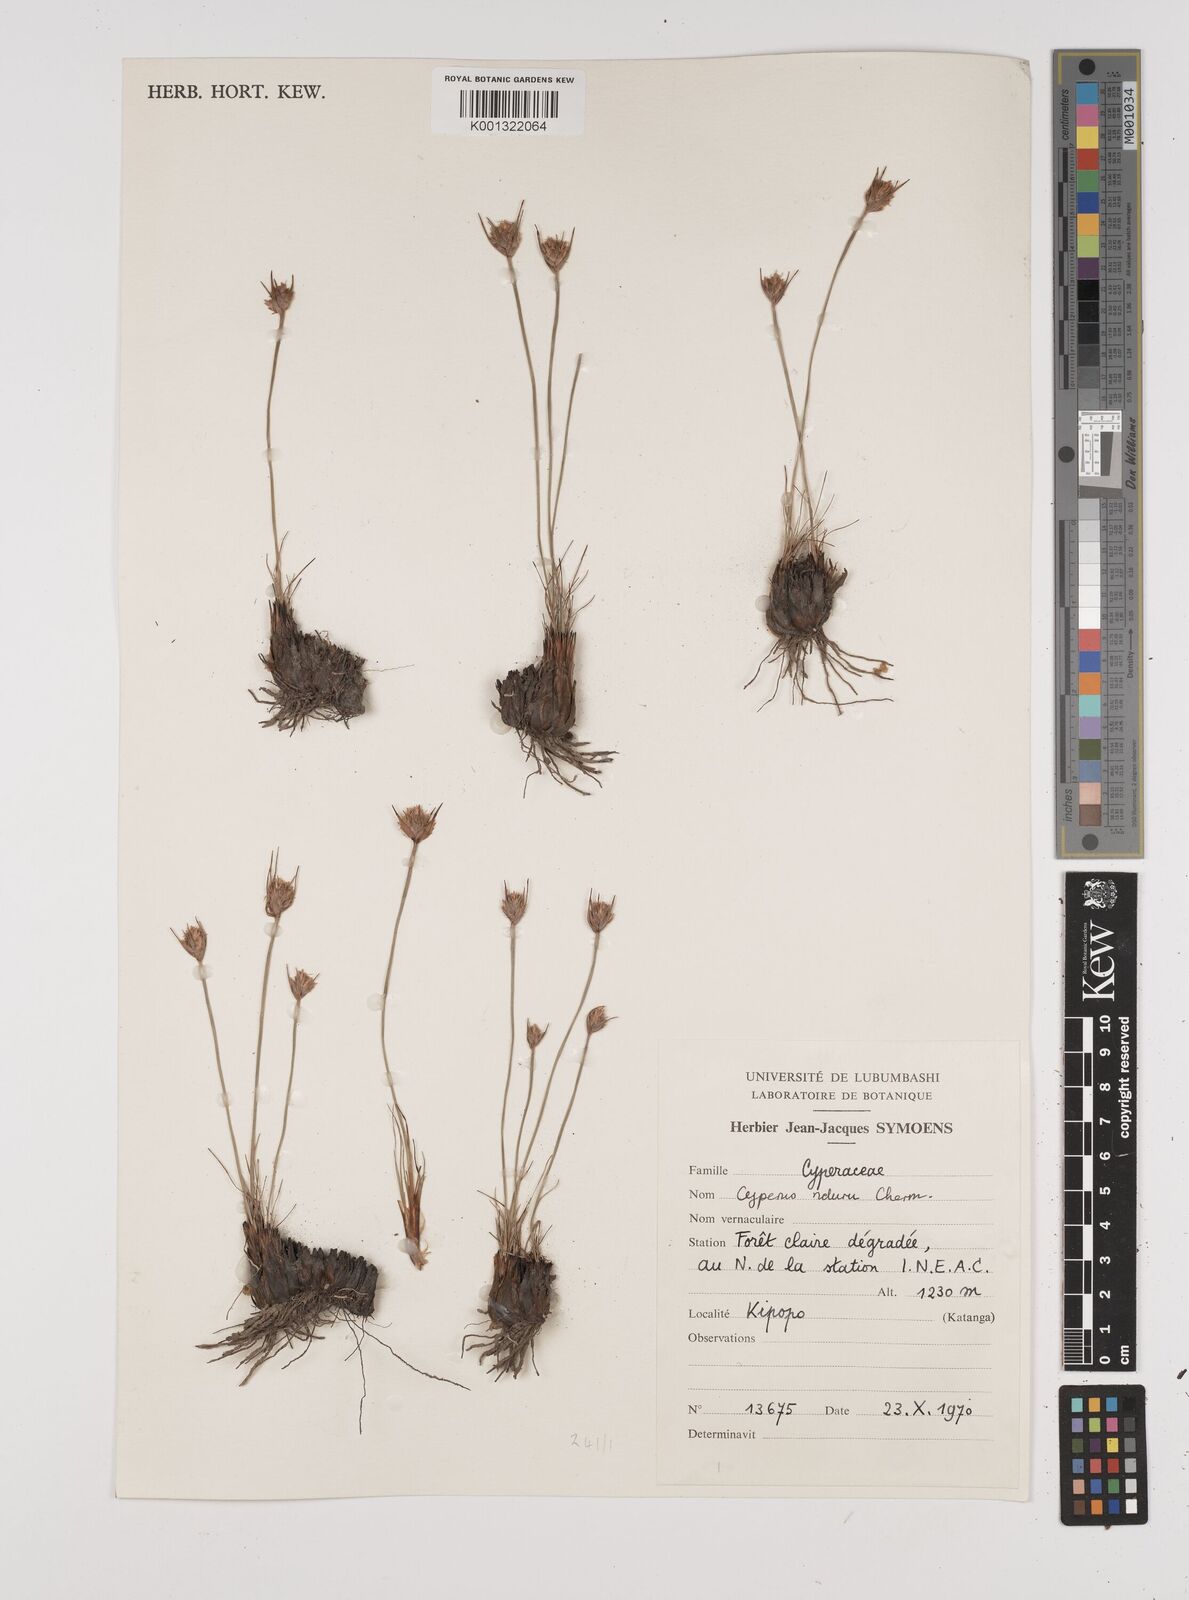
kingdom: Plantae
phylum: Tracheophyta
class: Liliopsida
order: Poales
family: Cyperaceae
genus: Cyperus
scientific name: Cyperus nduru
